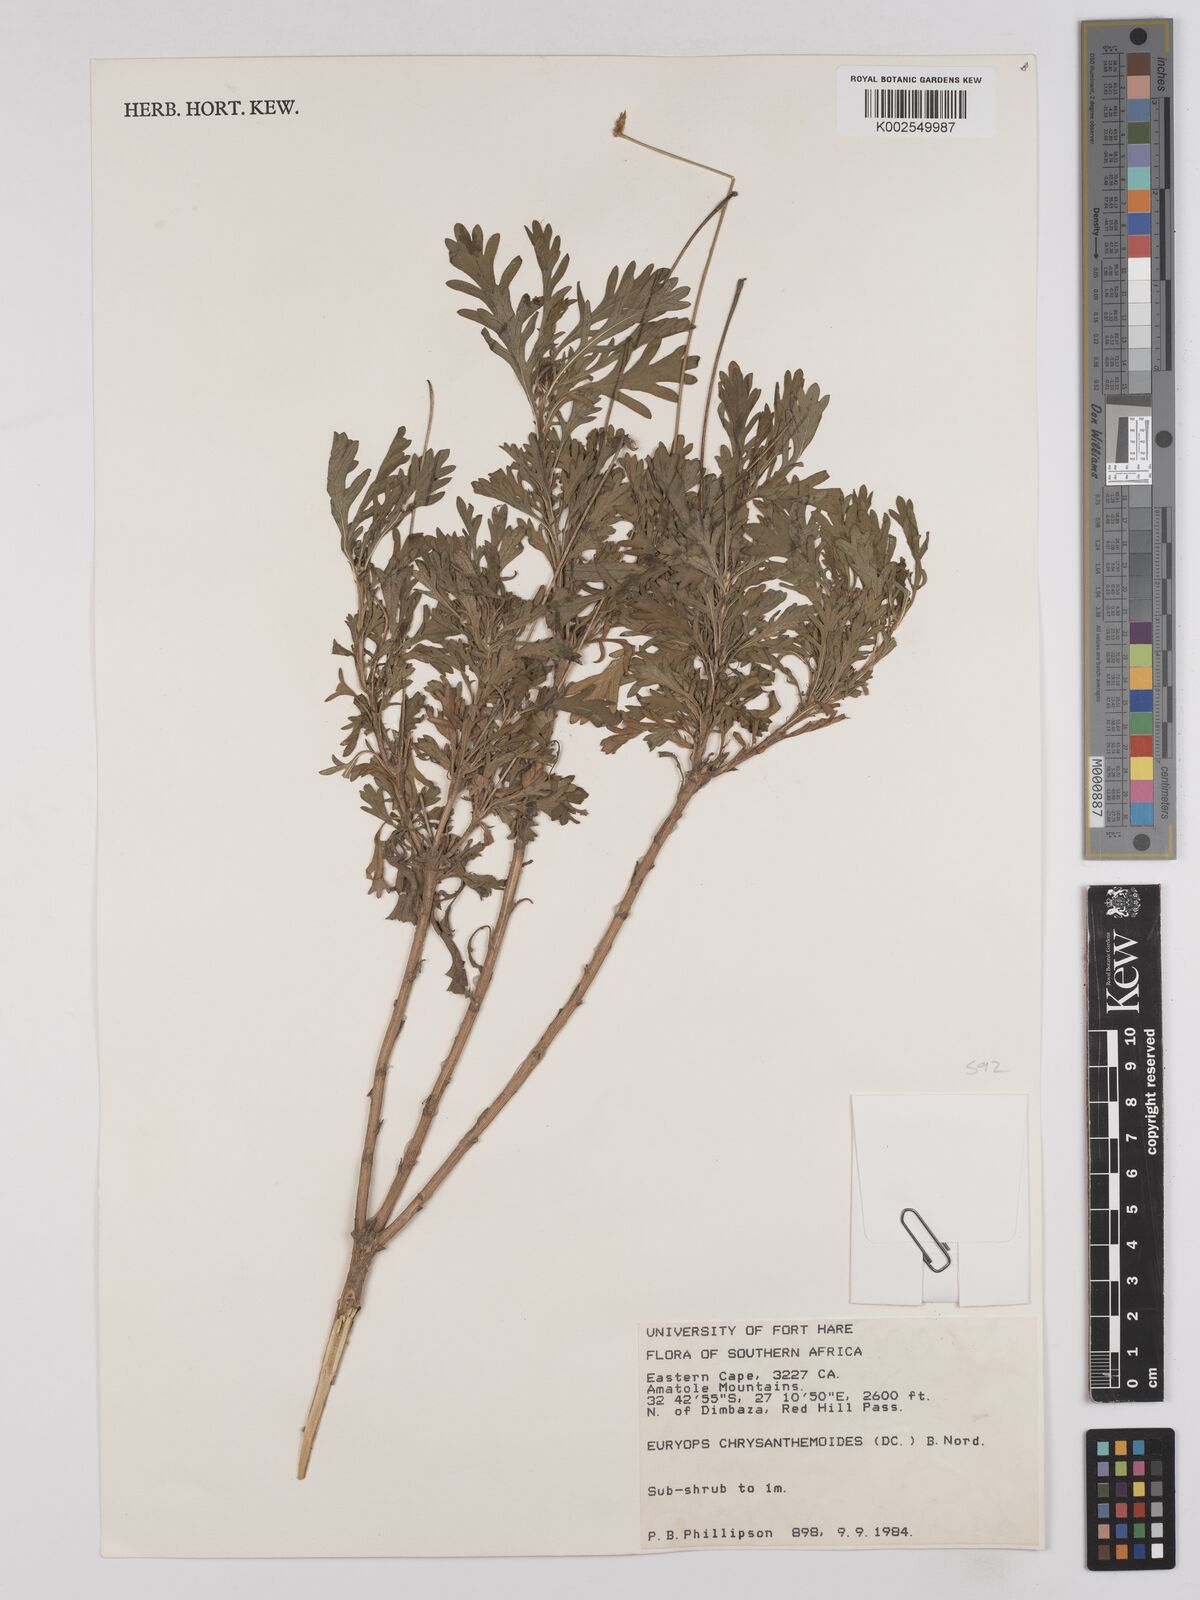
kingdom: Plantae
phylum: Tracheophyta
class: Magnoliopsida
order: Asterales
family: Asteraceae
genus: Euryops
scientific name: Euryops chrysanthemoides
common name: Bull's eye
